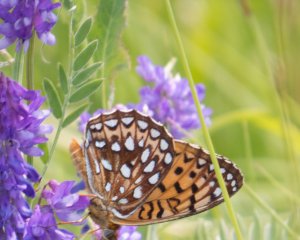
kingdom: Animalia
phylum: Arthropoda
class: Insecta
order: Lepidoptera
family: Nymphalidae
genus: Speyeria
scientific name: Speyeria cybele
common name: Great Spangled Fritillary
